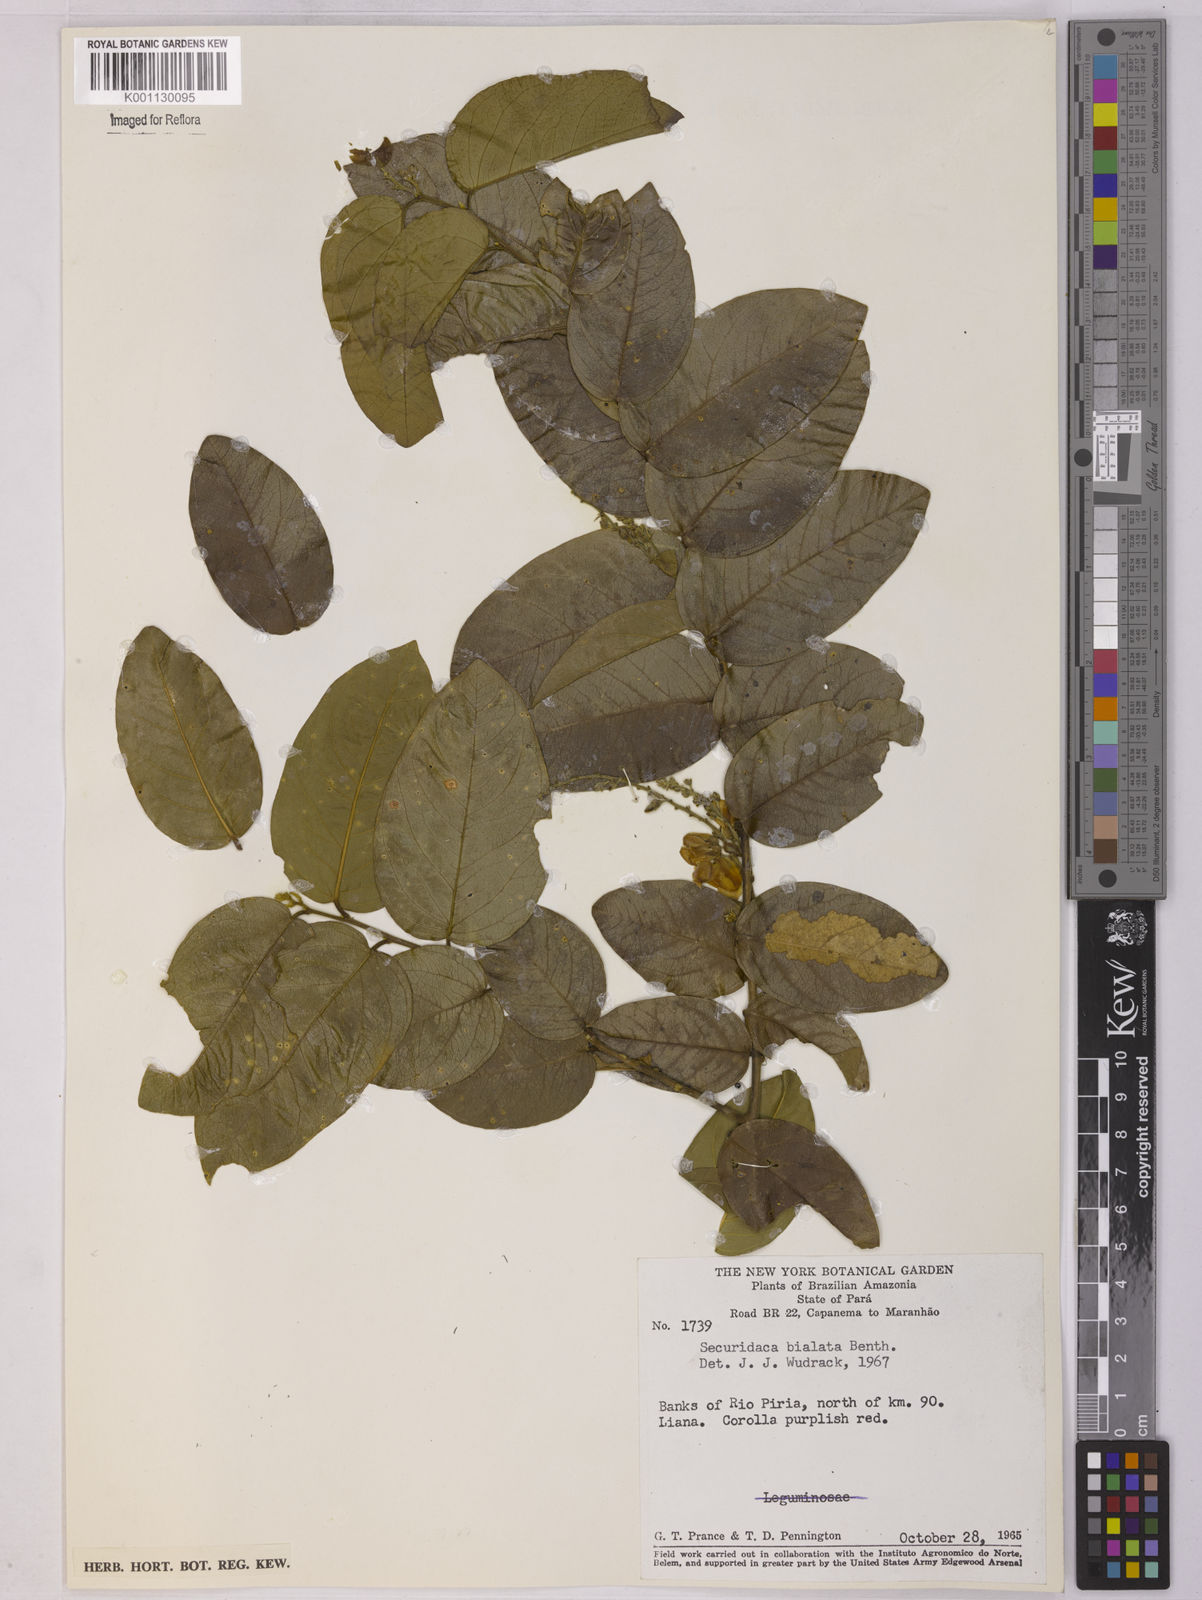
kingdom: Plantae
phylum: Tracheophyta
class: Magnoliopsida
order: Fabales
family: Polygalaceae
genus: Securidaca
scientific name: Securidaca bialata
